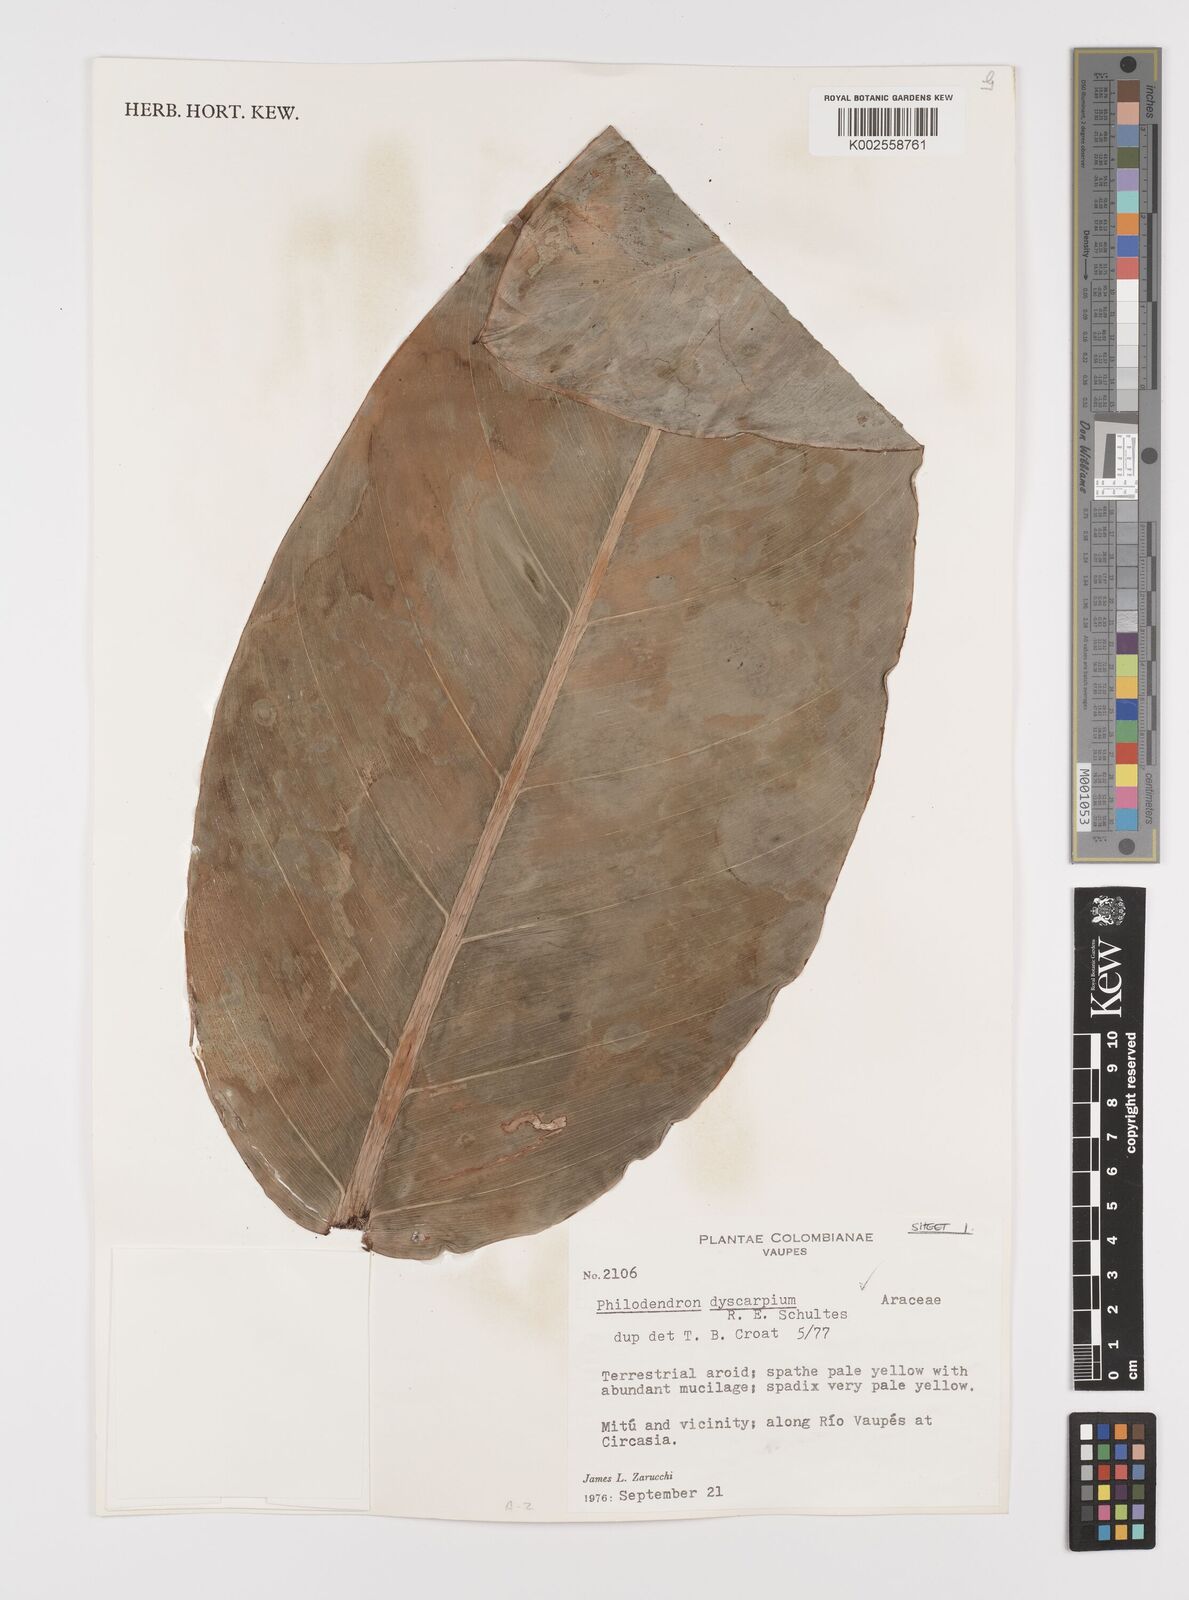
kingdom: Plantae
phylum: Tracheophyta
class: Liliopsida
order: Alismatales
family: Araceae
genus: Philodendron
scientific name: Philodendron dyscarpium
